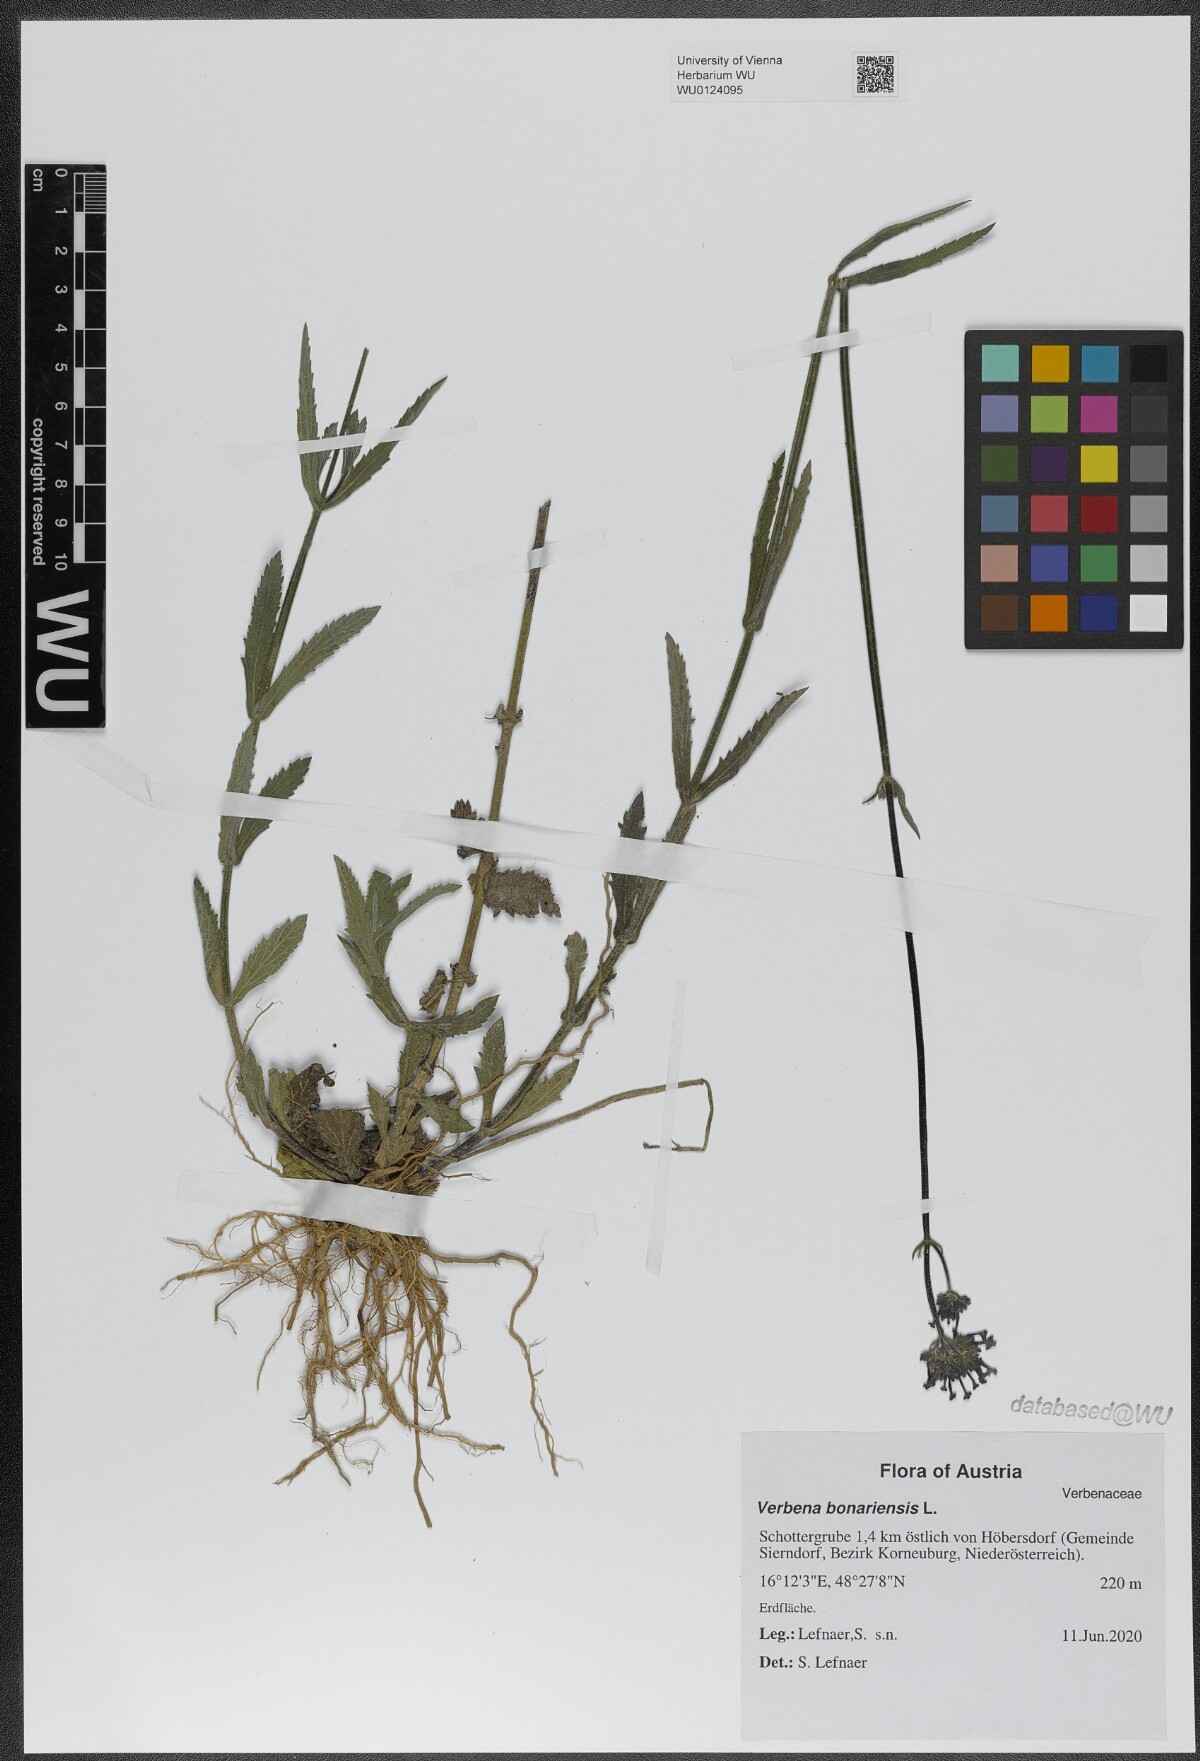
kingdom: Plantae
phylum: Tracheophyta
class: Magnoliopsida
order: Lamiales
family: Verbenaceae
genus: Verbena
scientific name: Verbena bonariensis
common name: Purpletop vervain
